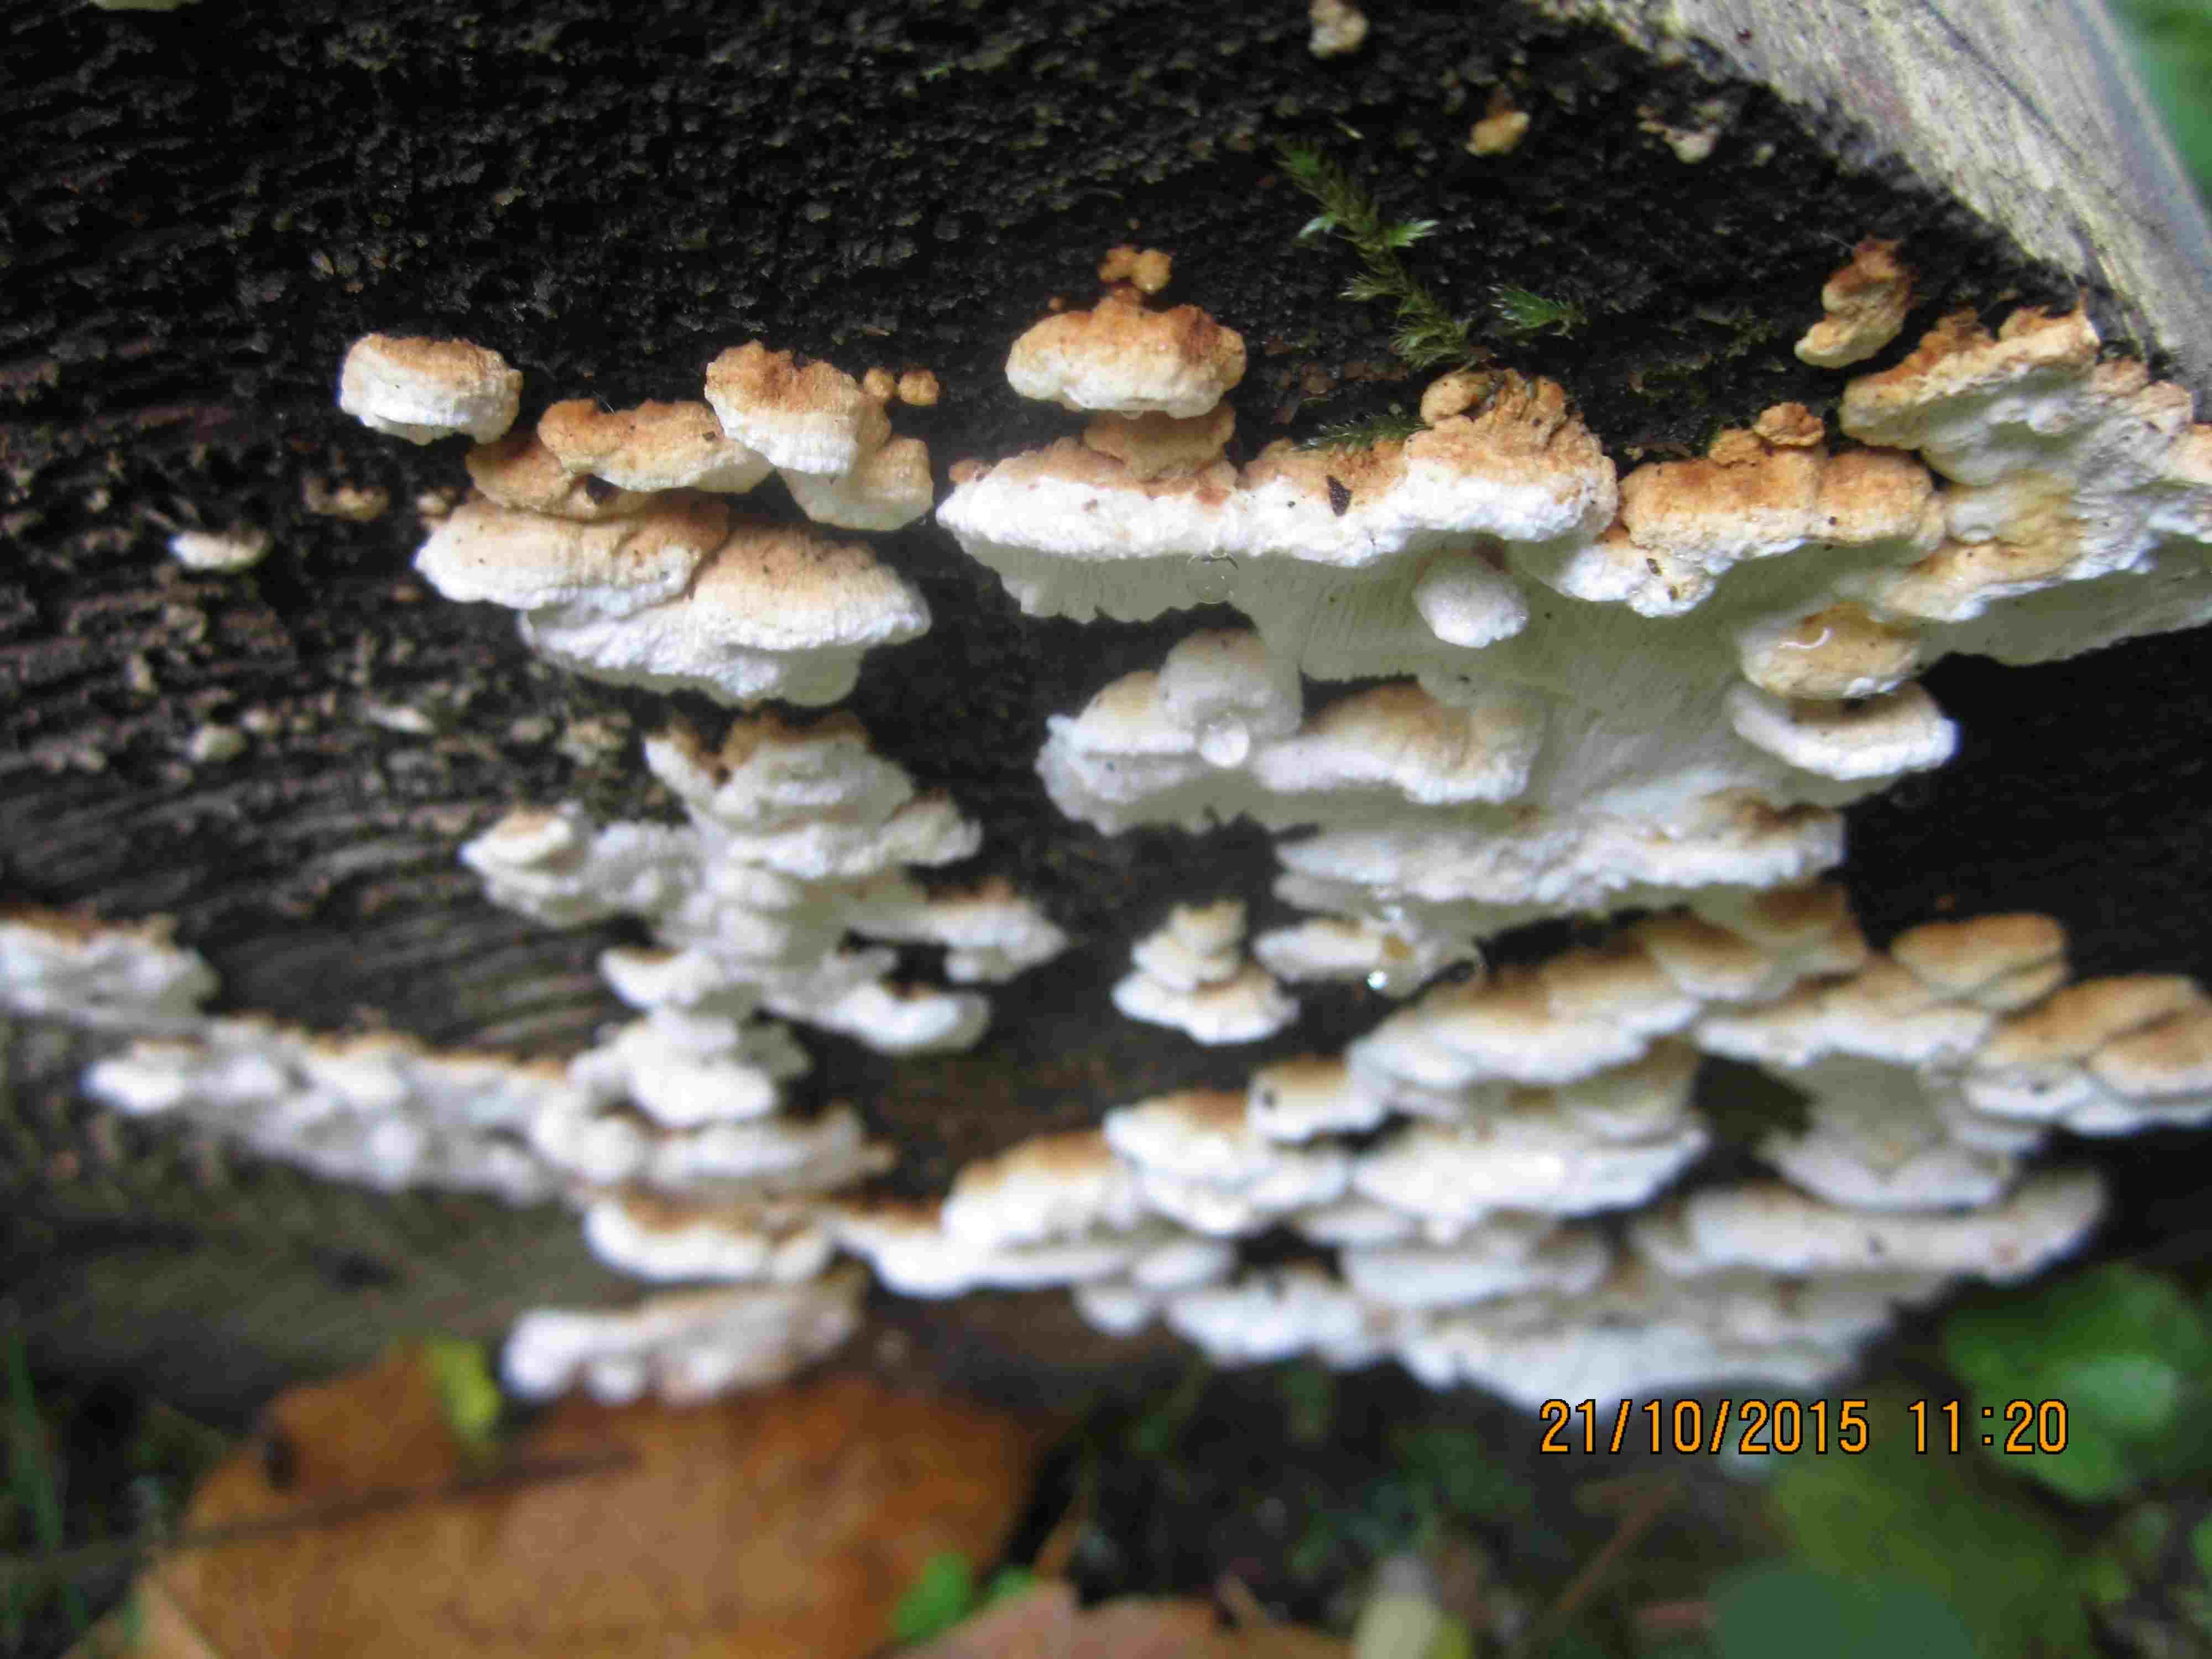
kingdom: Fungi
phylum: Basidiomycota
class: Agaricomycetes
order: Polyporales
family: Fomitopsidaceae
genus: Neoantrodia
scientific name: Neoantrodia serialis
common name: række-sejporesvamp
